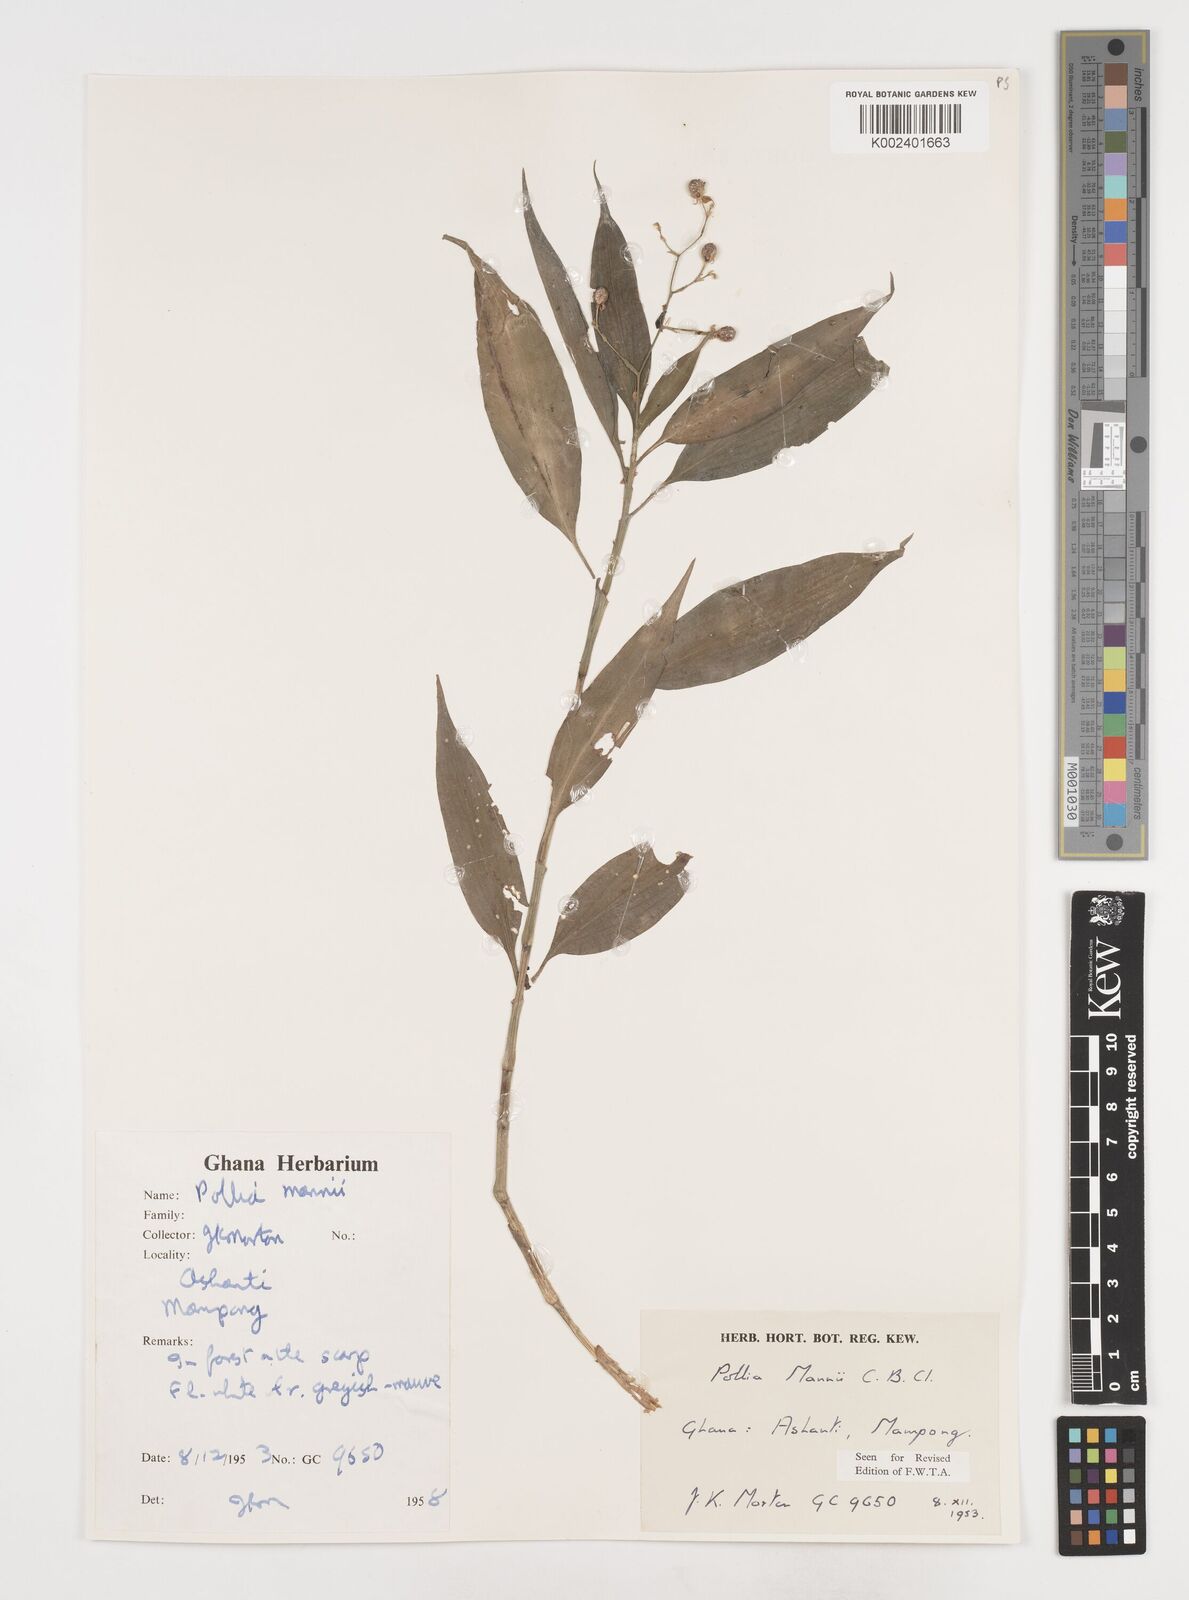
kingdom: Plantae
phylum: Tracheophyta
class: Liliopsida
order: Commelinales
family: Commelinaceae
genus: Pollia
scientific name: Pollia mannii
